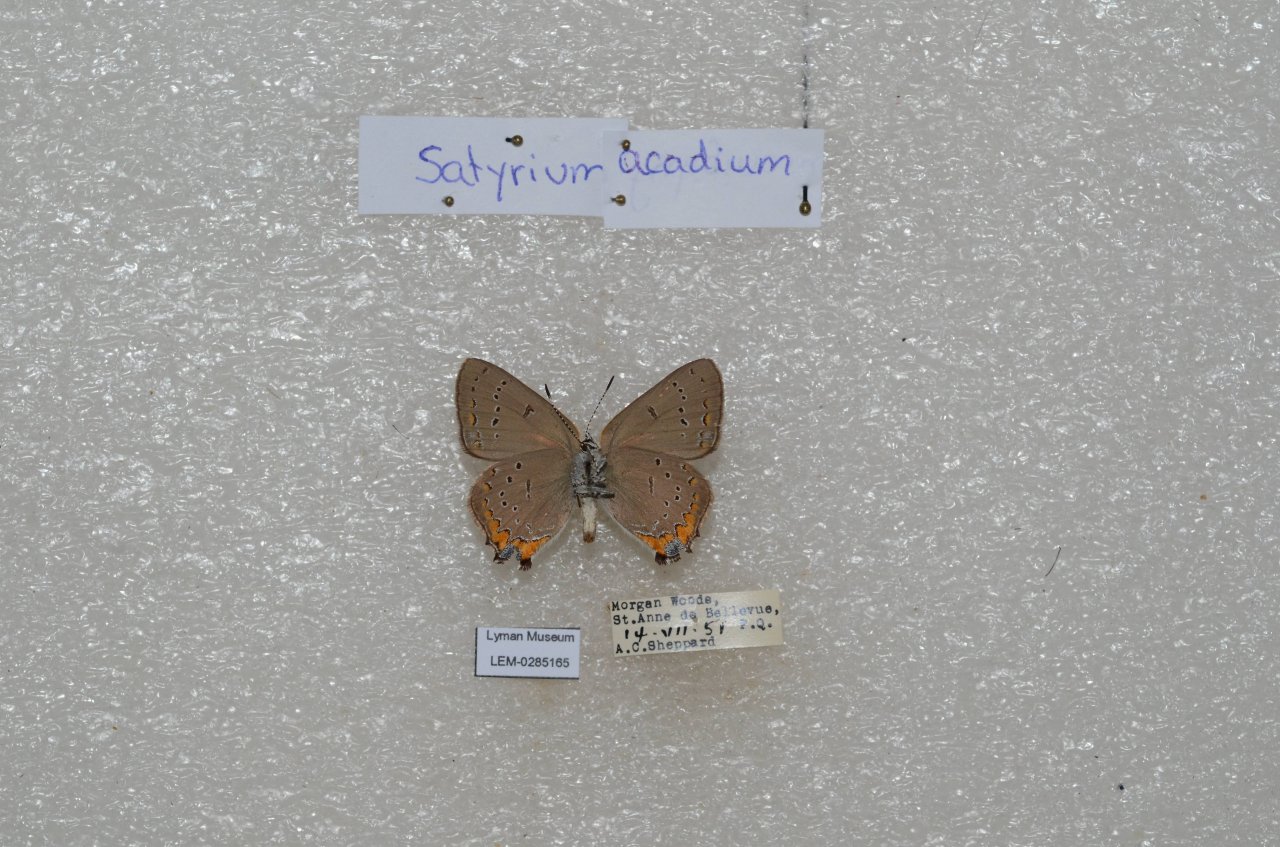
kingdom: Animalia
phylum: Arthropoda
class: Insecta
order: Lepidoptera
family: Lycaenidae
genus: Strymon
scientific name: Strymon acadica
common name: Acadian Hairstreak
